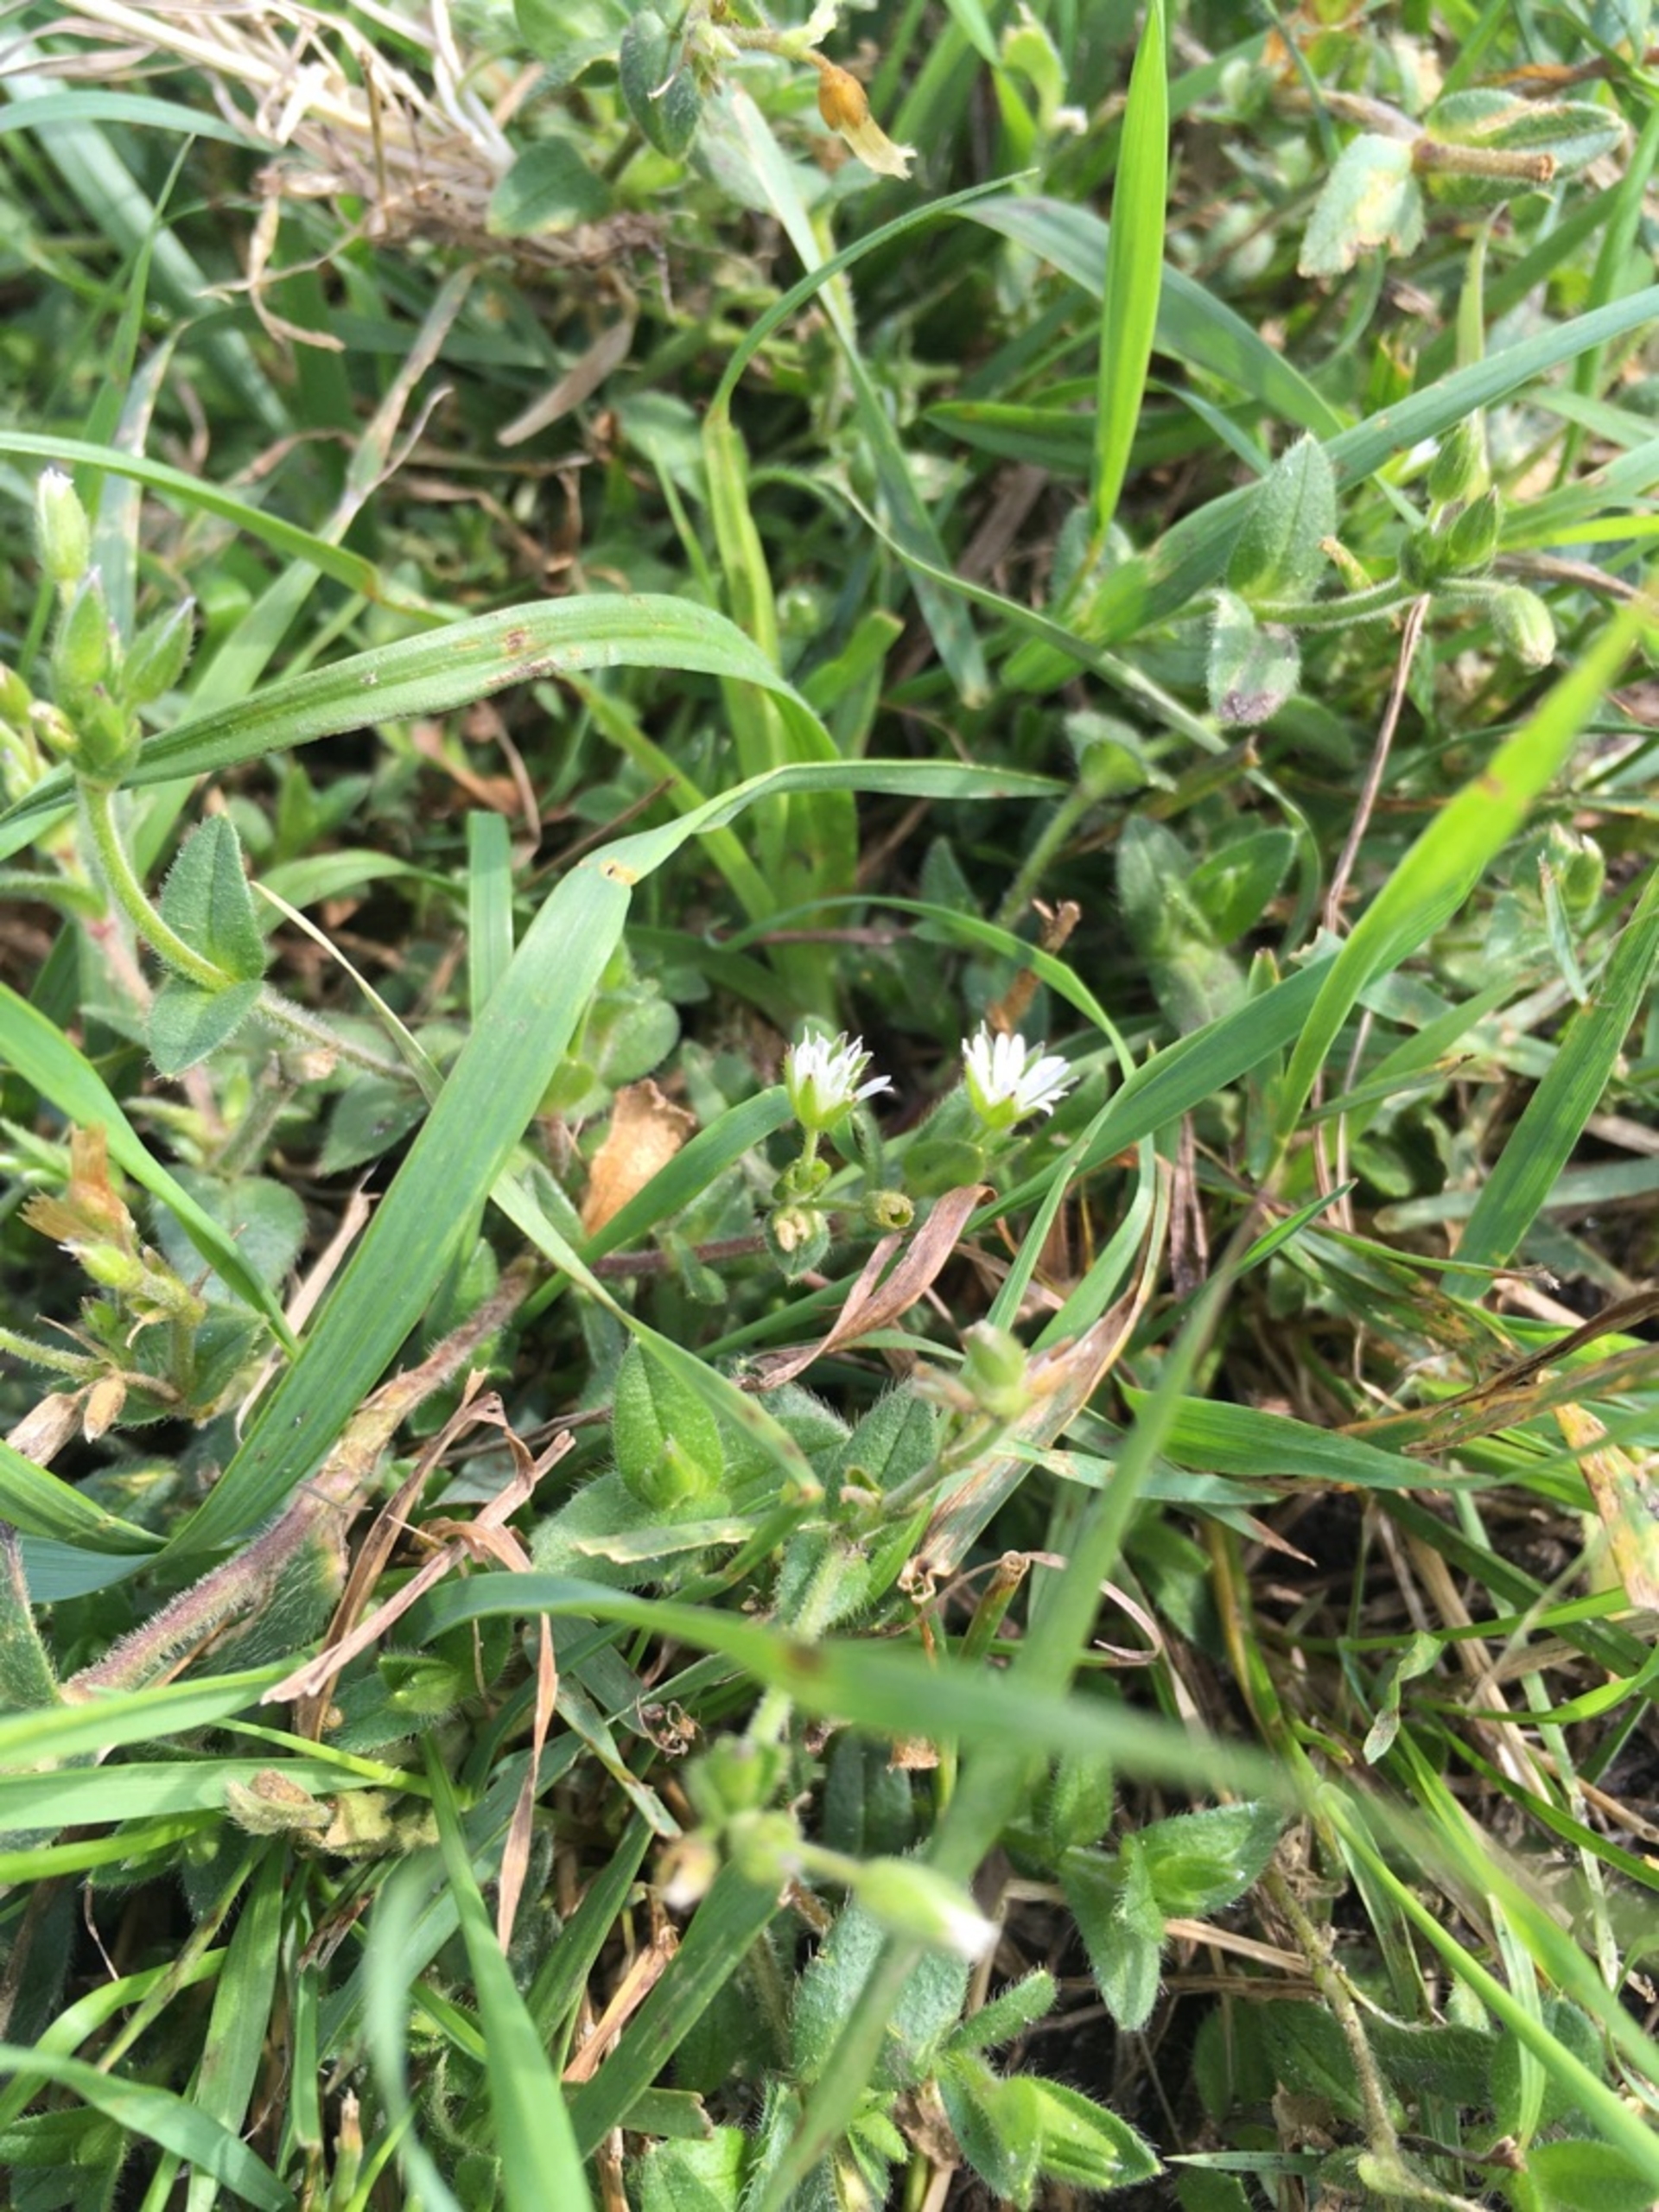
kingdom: Plantae
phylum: Tracheophyta
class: Magnoliopsida
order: Caryophyllales
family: Caryophyllaceae
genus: Cerastium
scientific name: Cerastium fontanum
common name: Almindelig hønsetarm
